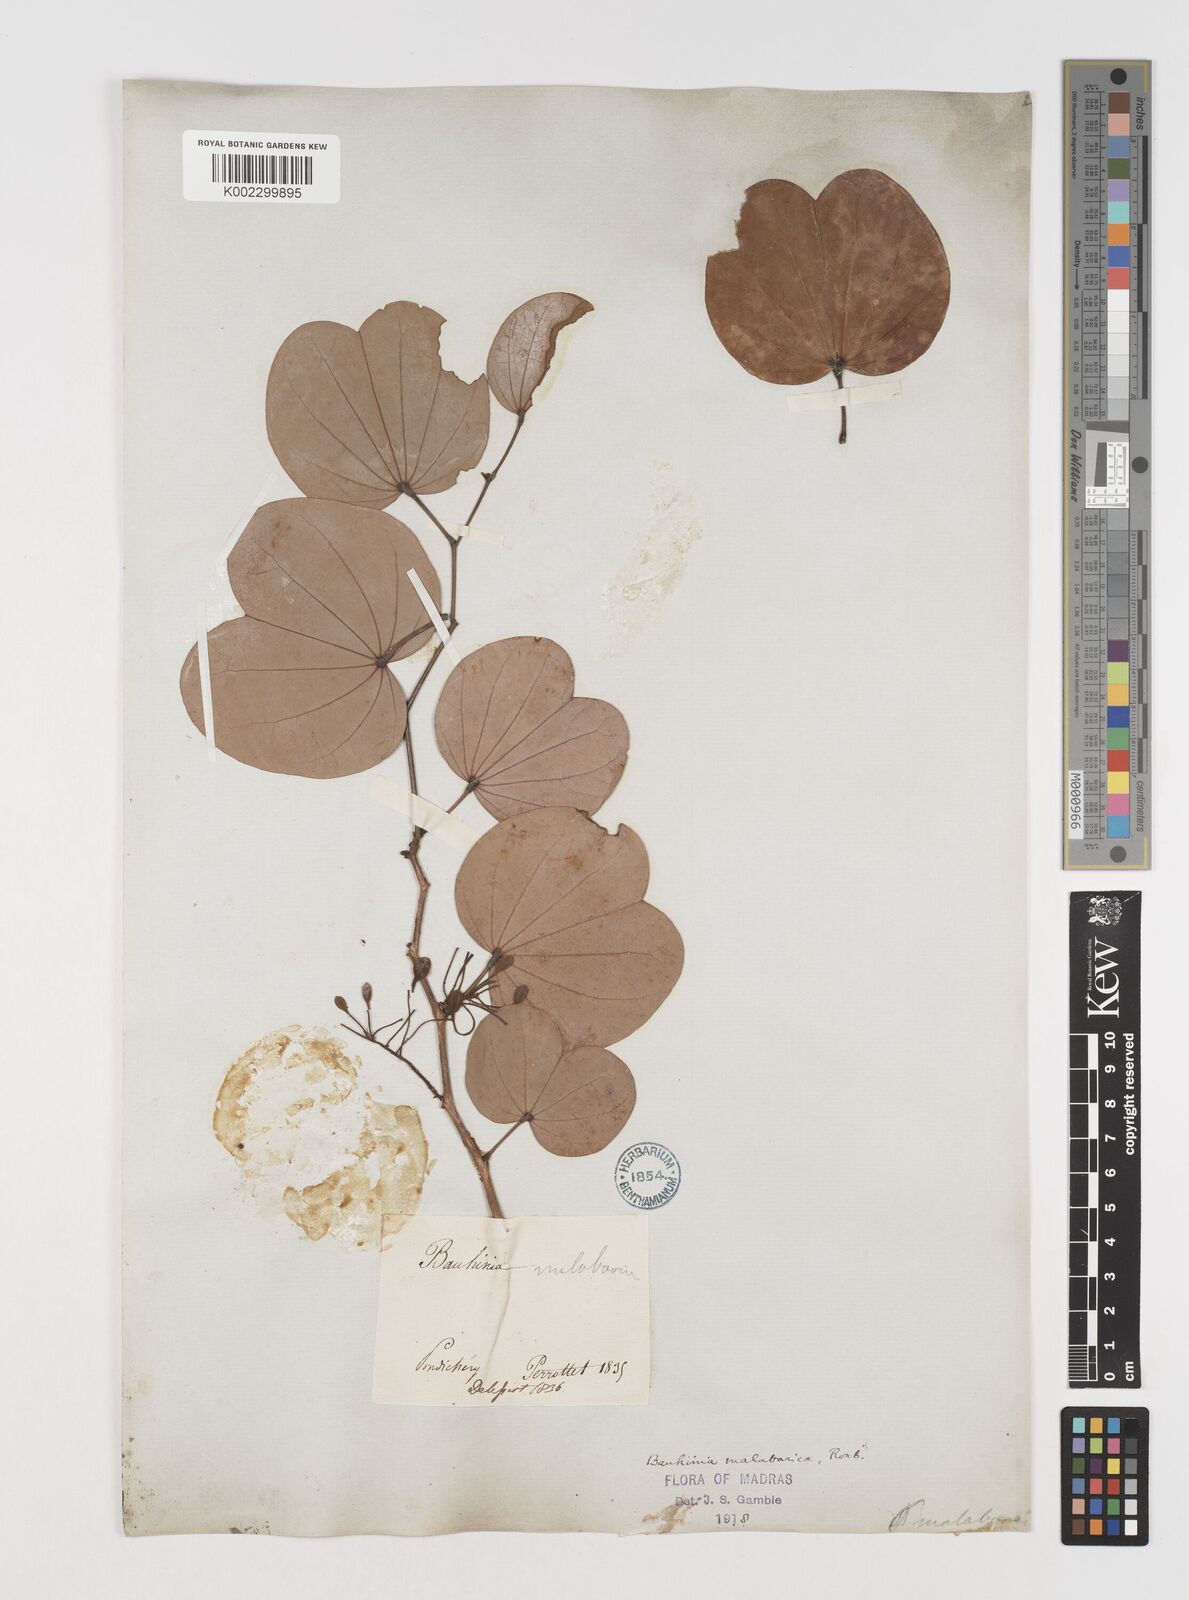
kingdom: Plantae
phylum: Tracheophyta
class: Magnoliopsida
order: Fabales
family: Fabaceae
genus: Piliostigma
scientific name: Piliostigma malabaricum
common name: Malabar bauhinia
